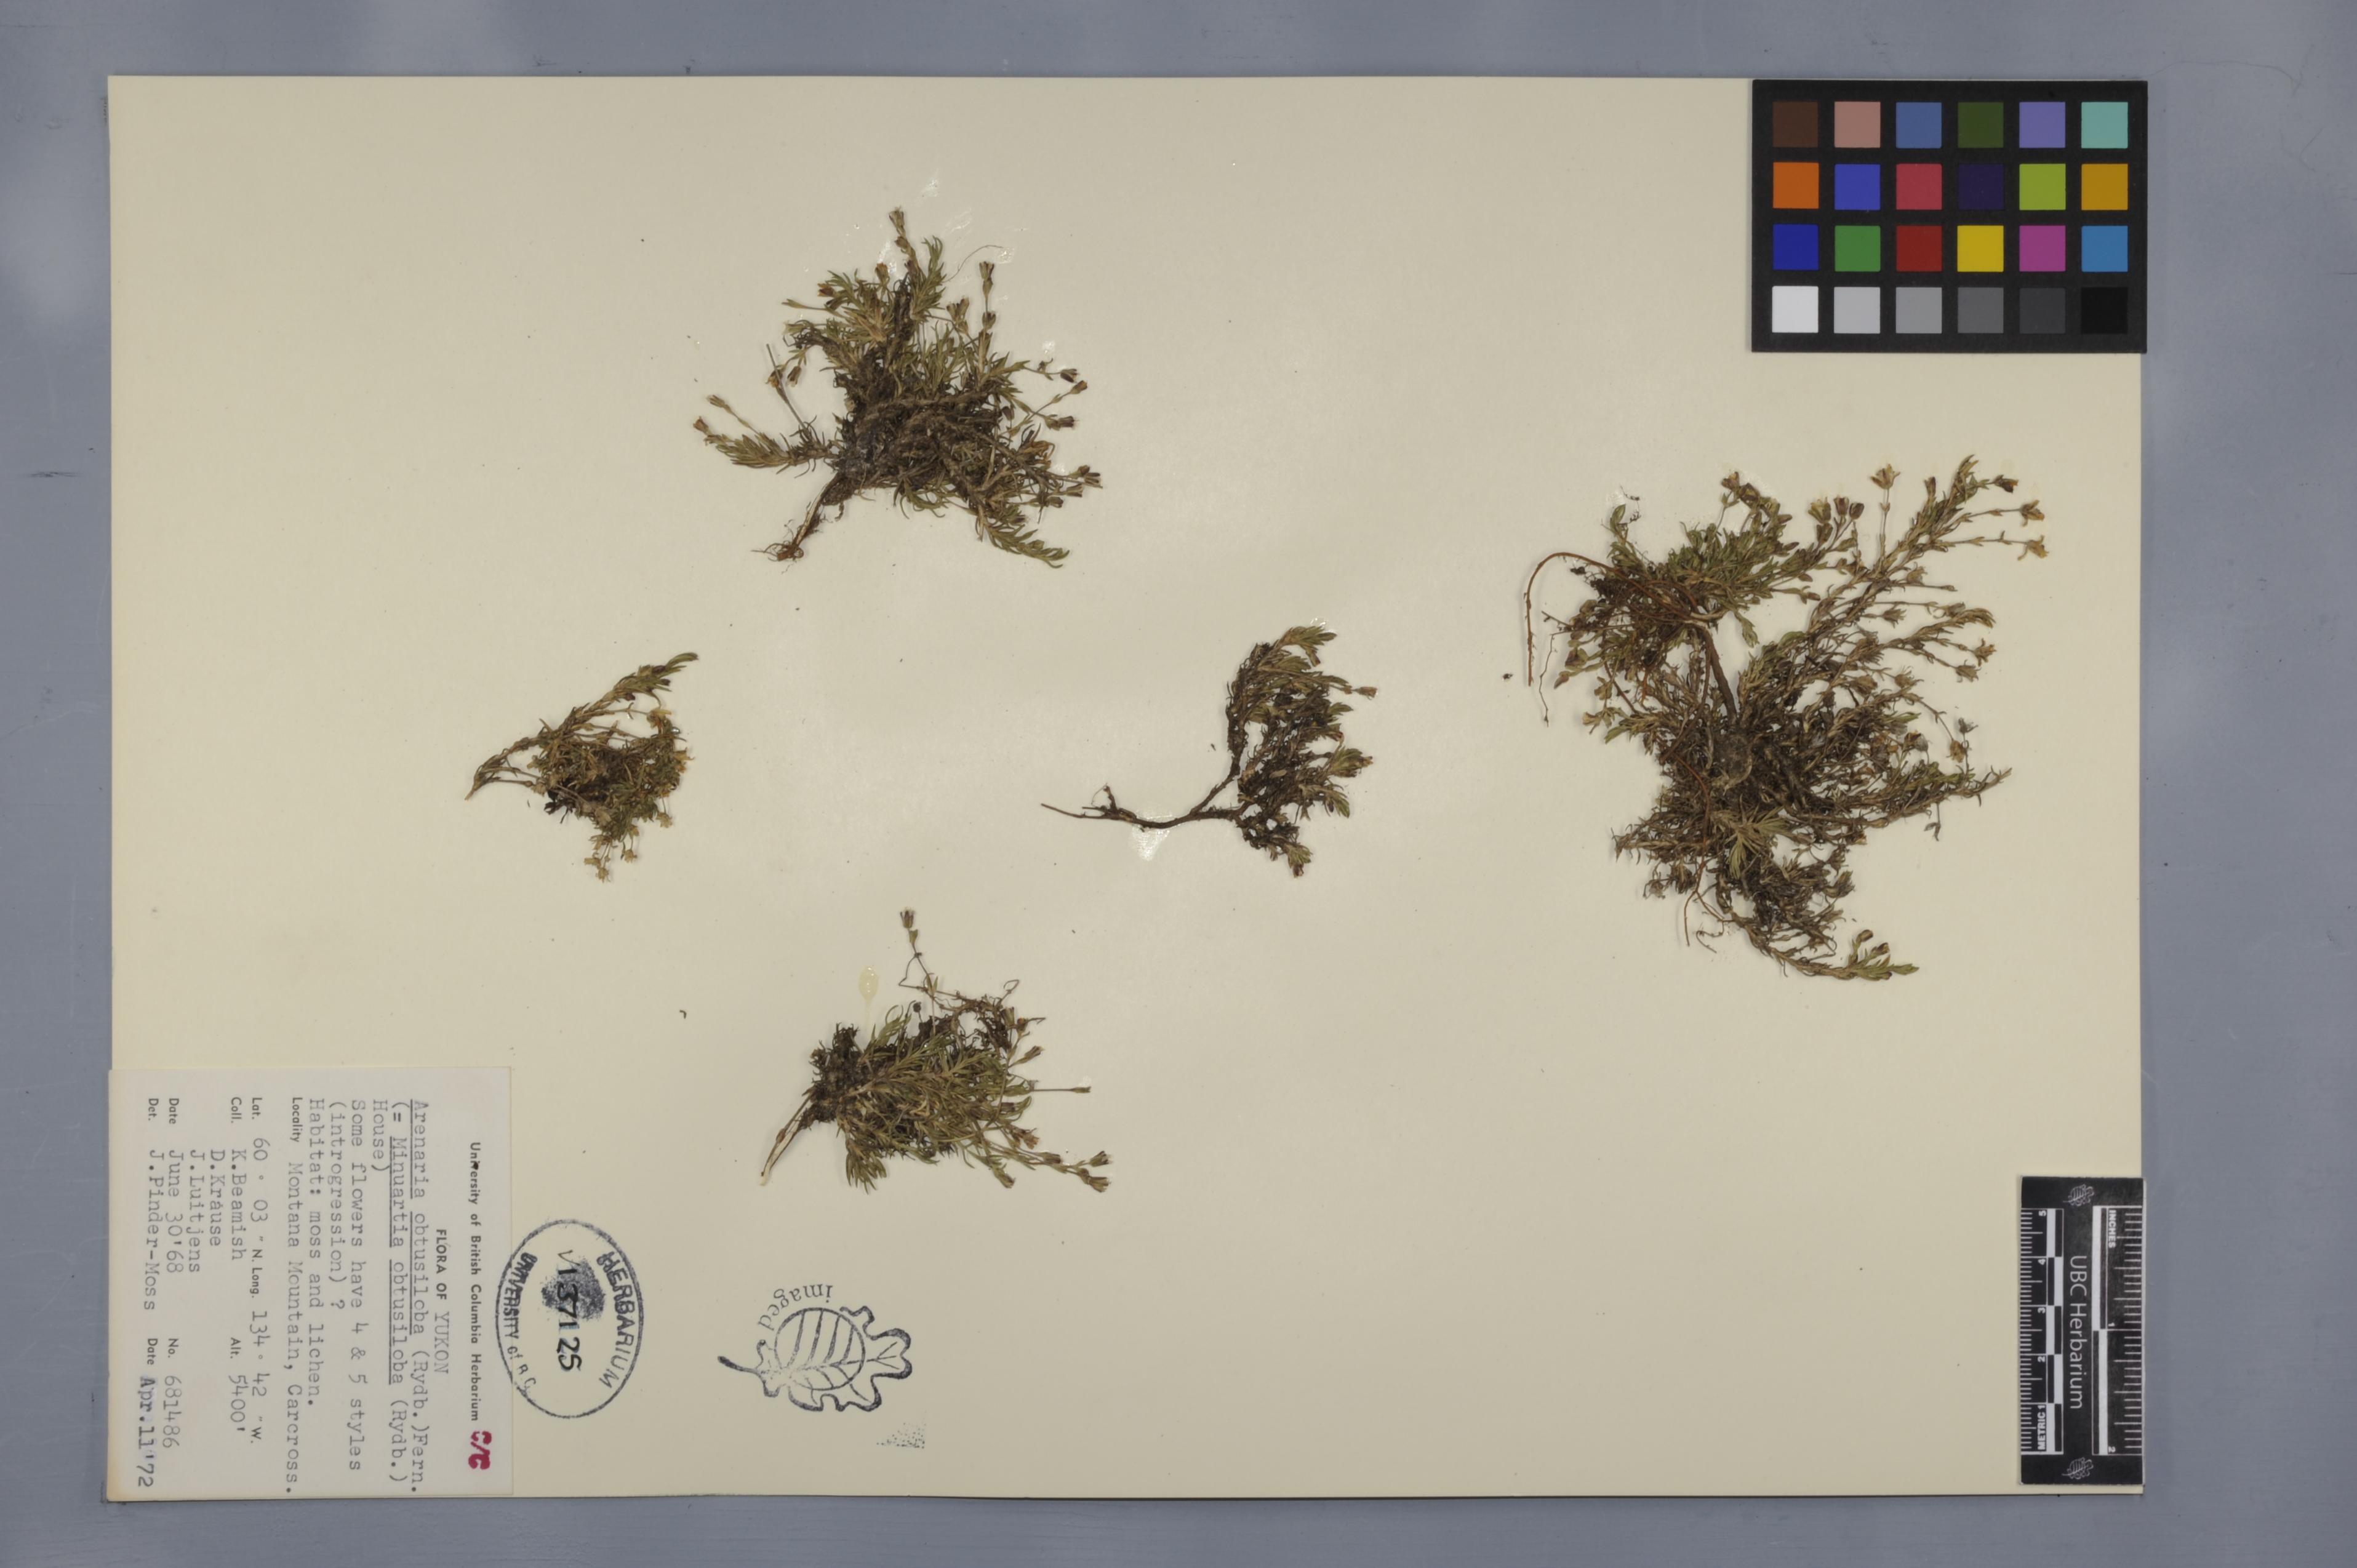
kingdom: Plantae
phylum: Tracheophyta
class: Magnoliopsida
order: Caryophyllales
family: Caryophyllaceae
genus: Cherleria
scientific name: Cherleria obtusiloba
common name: Alpine stitchwort
